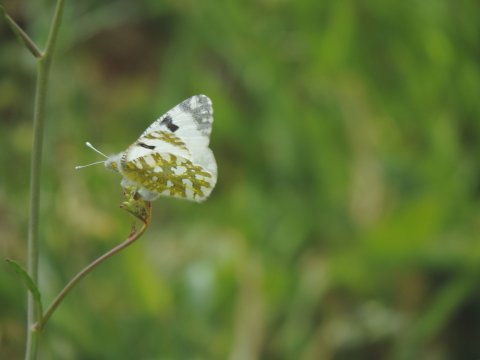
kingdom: Animalia
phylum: Arthropoda
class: Insecta
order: Lepidoptera
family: Pieridae
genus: Euchloe
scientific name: Euchloe ausonia
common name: Eastern Dappled White
